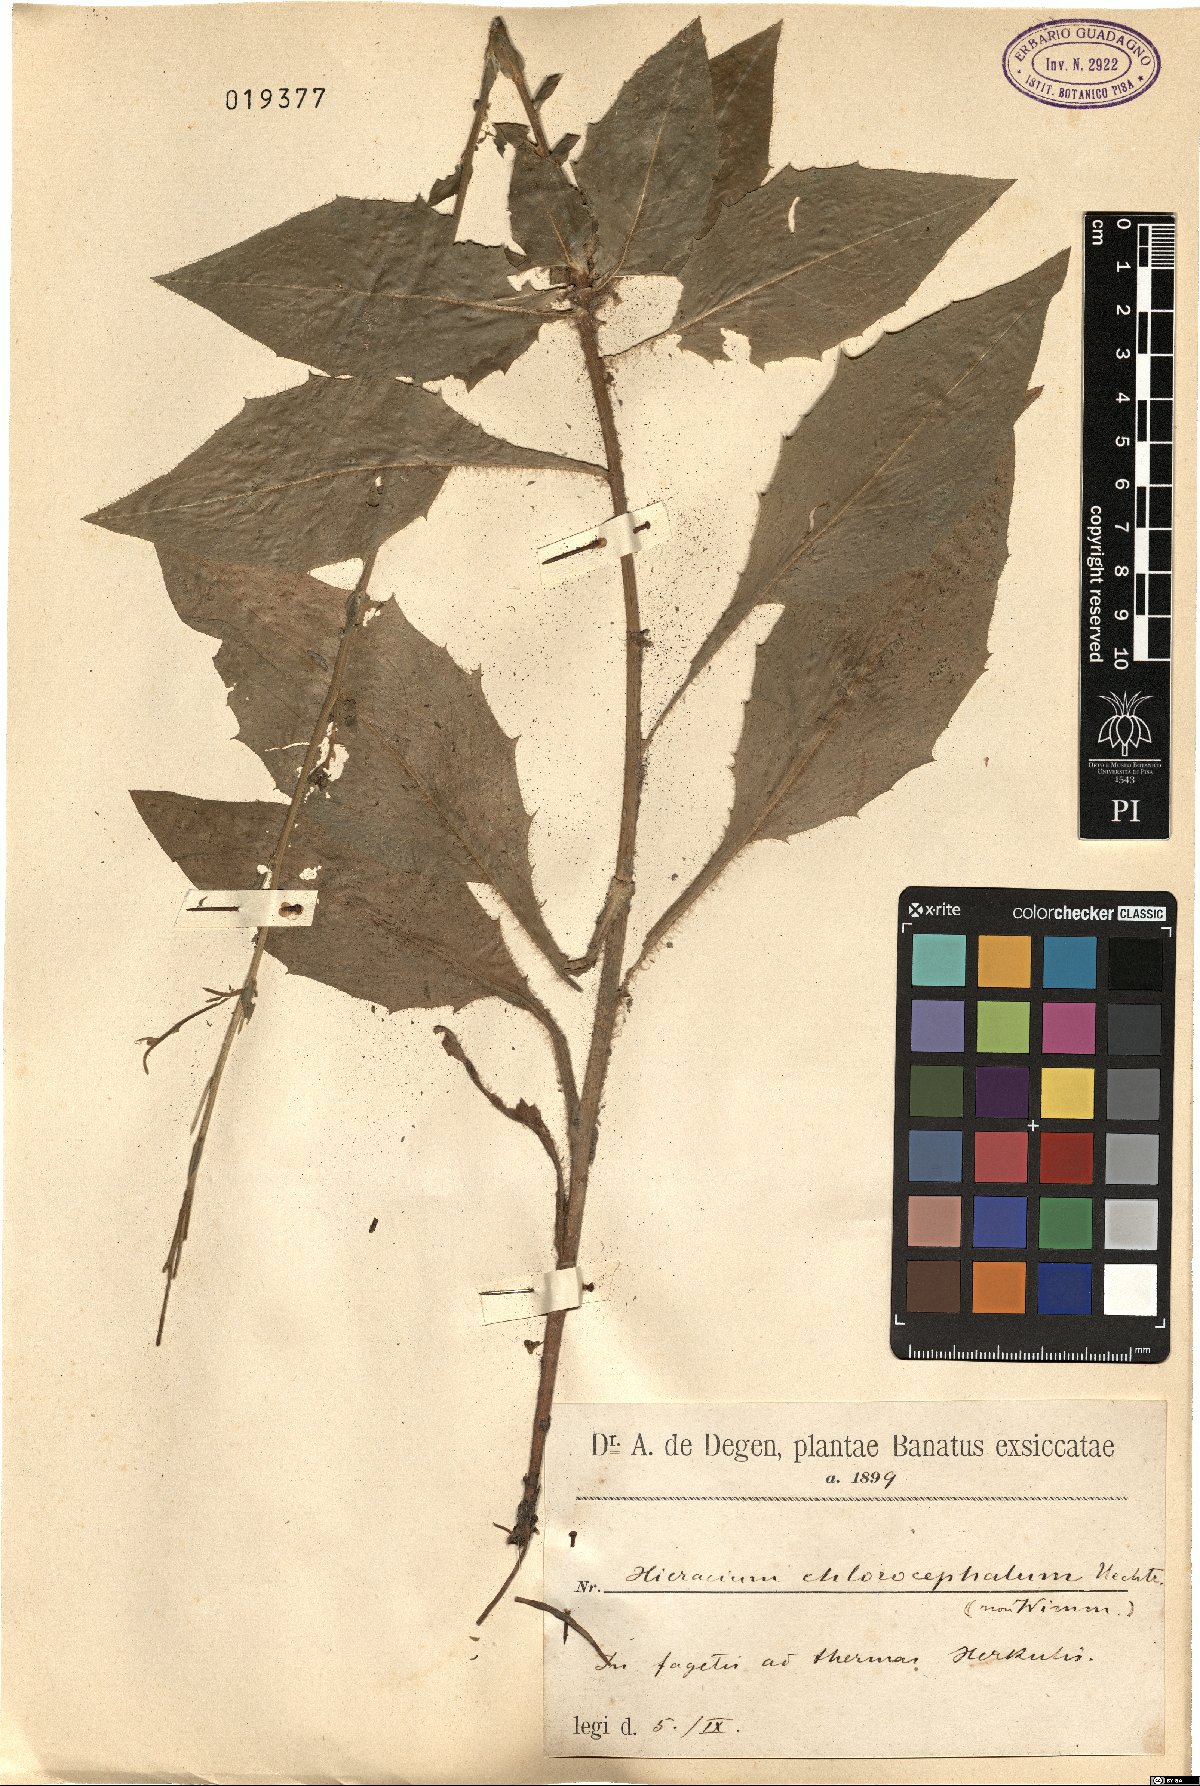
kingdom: Plantae
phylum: Tracheophyta
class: Magnoliopsida
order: Asterales
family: Asteraceae
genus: Hieracium
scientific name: Hieracium chlorocephalum
